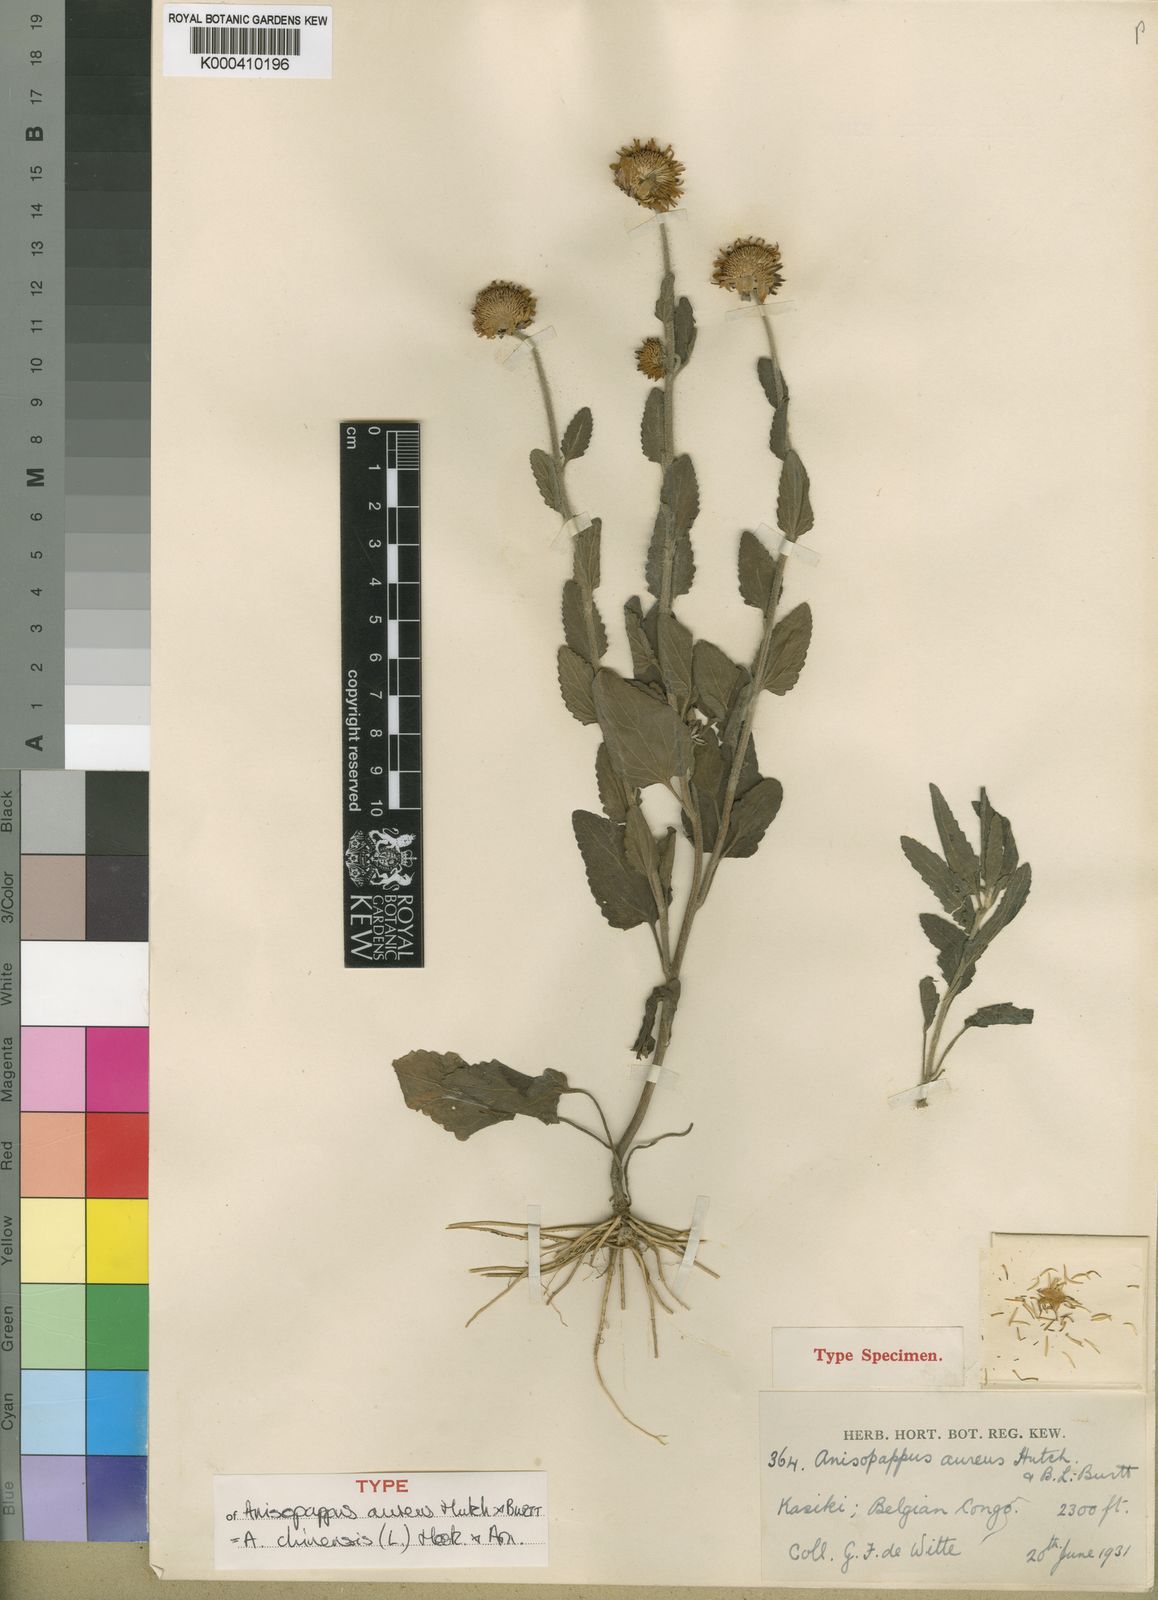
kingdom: Plantae
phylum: Tracheophyta
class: Magnoliopsida
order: Asterales
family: Asteraceae
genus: Anisopappus
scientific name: Anisopappus chinensis
